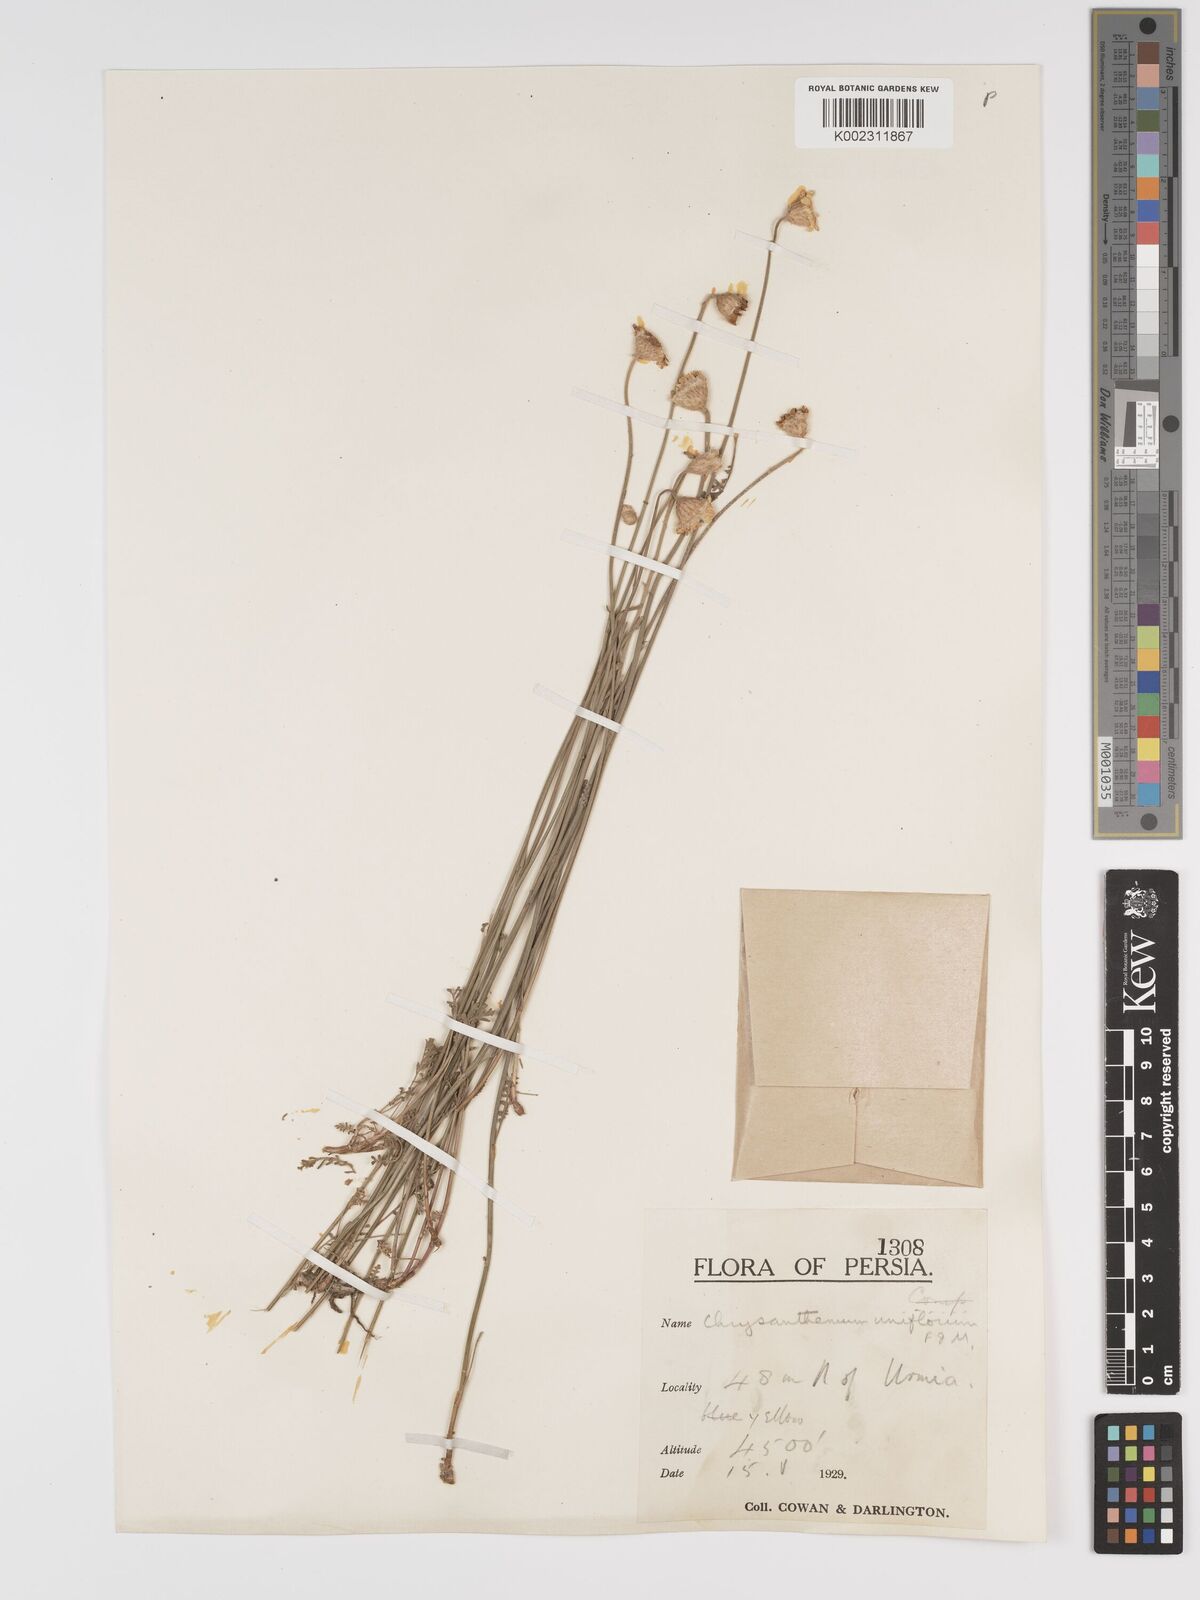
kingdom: Plantae
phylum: Tracheophyta
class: Magnoliopsida
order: Asterales
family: Asteraceae
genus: Tanacetum
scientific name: Tanacetum uniflorum
